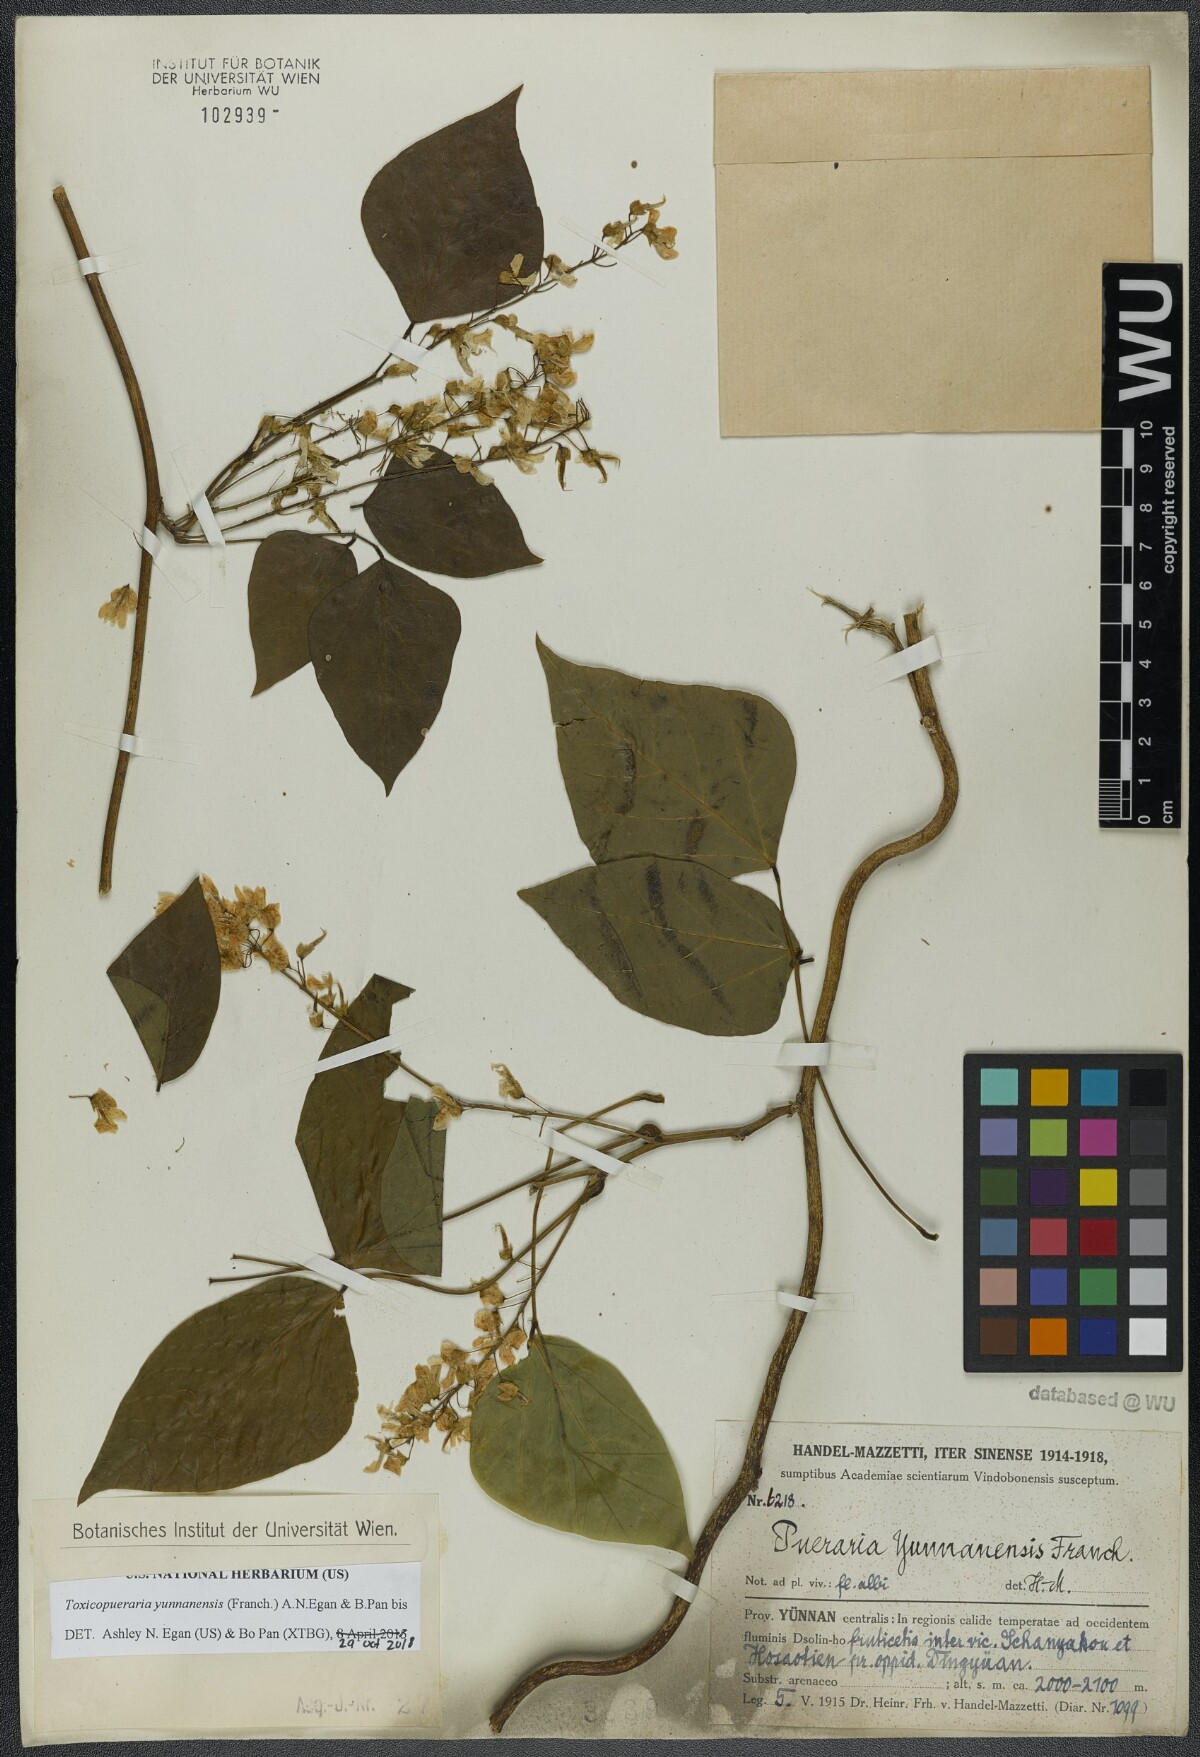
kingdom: Plantae
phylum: Tracheophyta
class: Magnoliopsida
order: Fabales
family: Fabaceae
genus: Toxicopueraria
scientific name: Toxicopueraria yunnanensis
